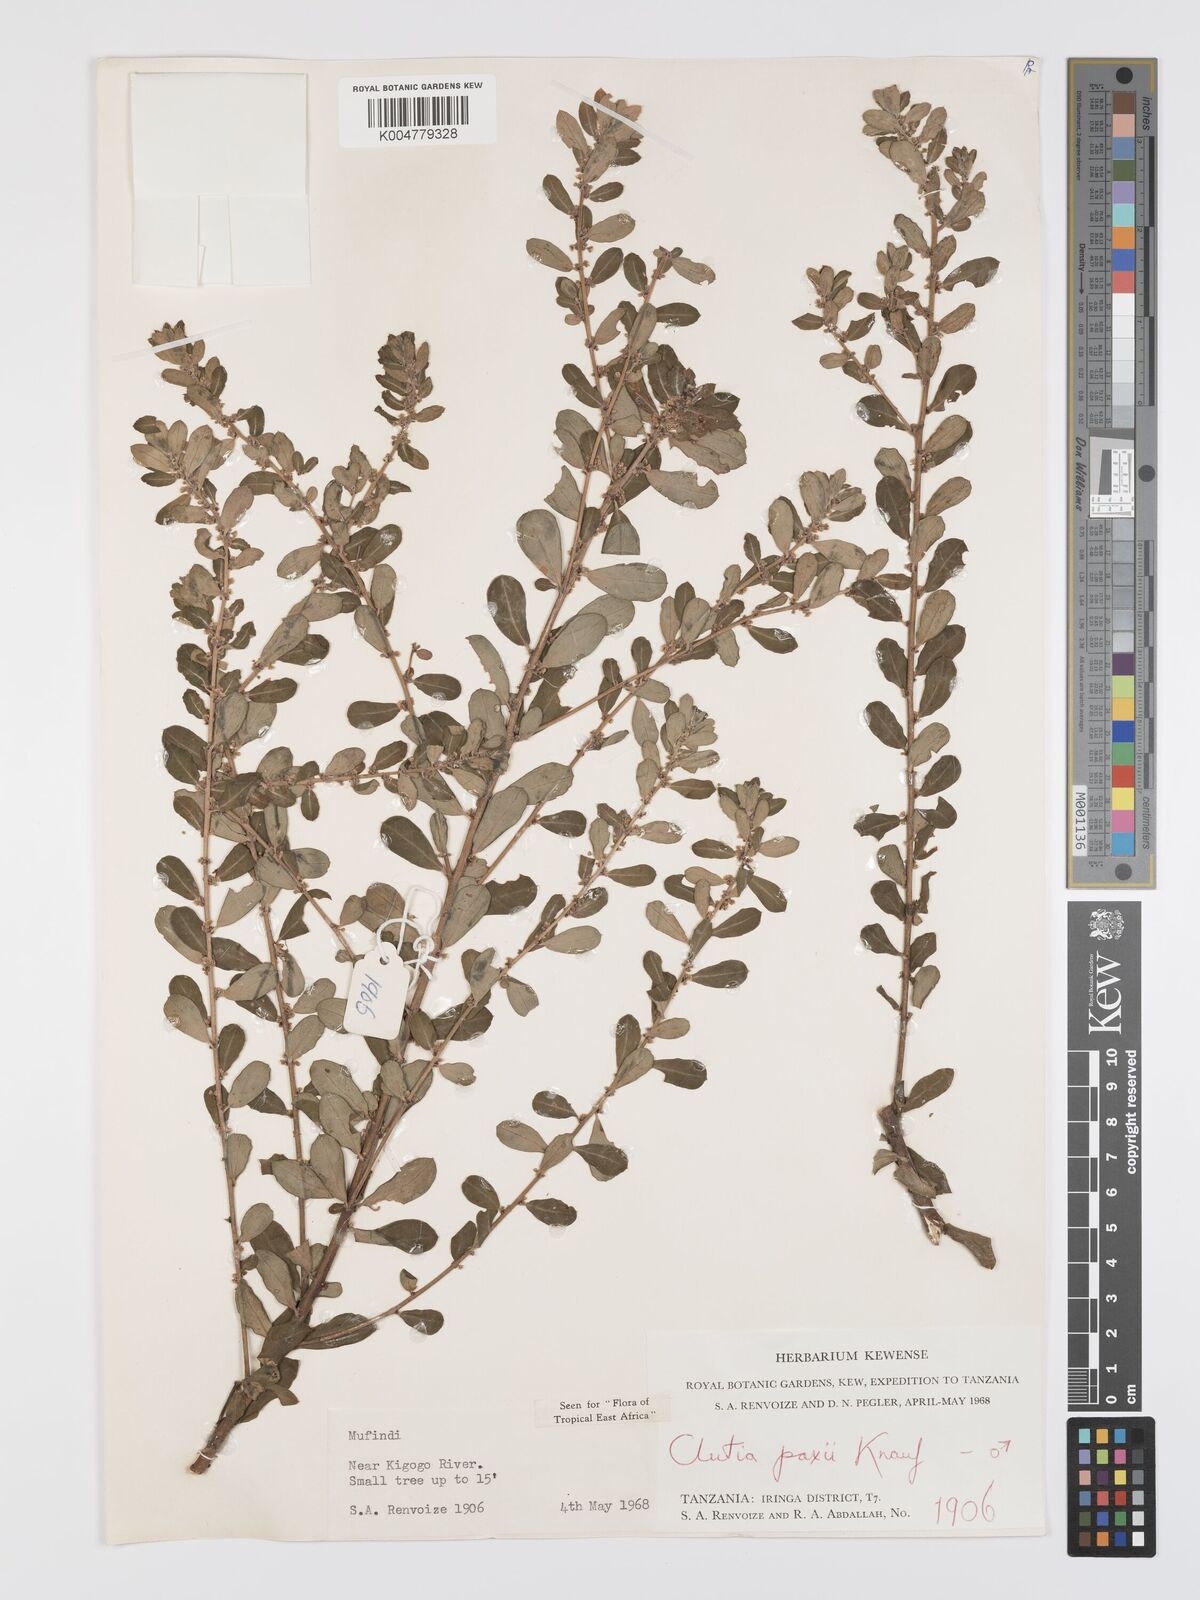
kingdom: Plantae
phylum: Tracheophyta
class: Magnoliopsida
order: Malpighiales
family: Peraceae
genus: Clutia
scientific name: Clutia paxii
